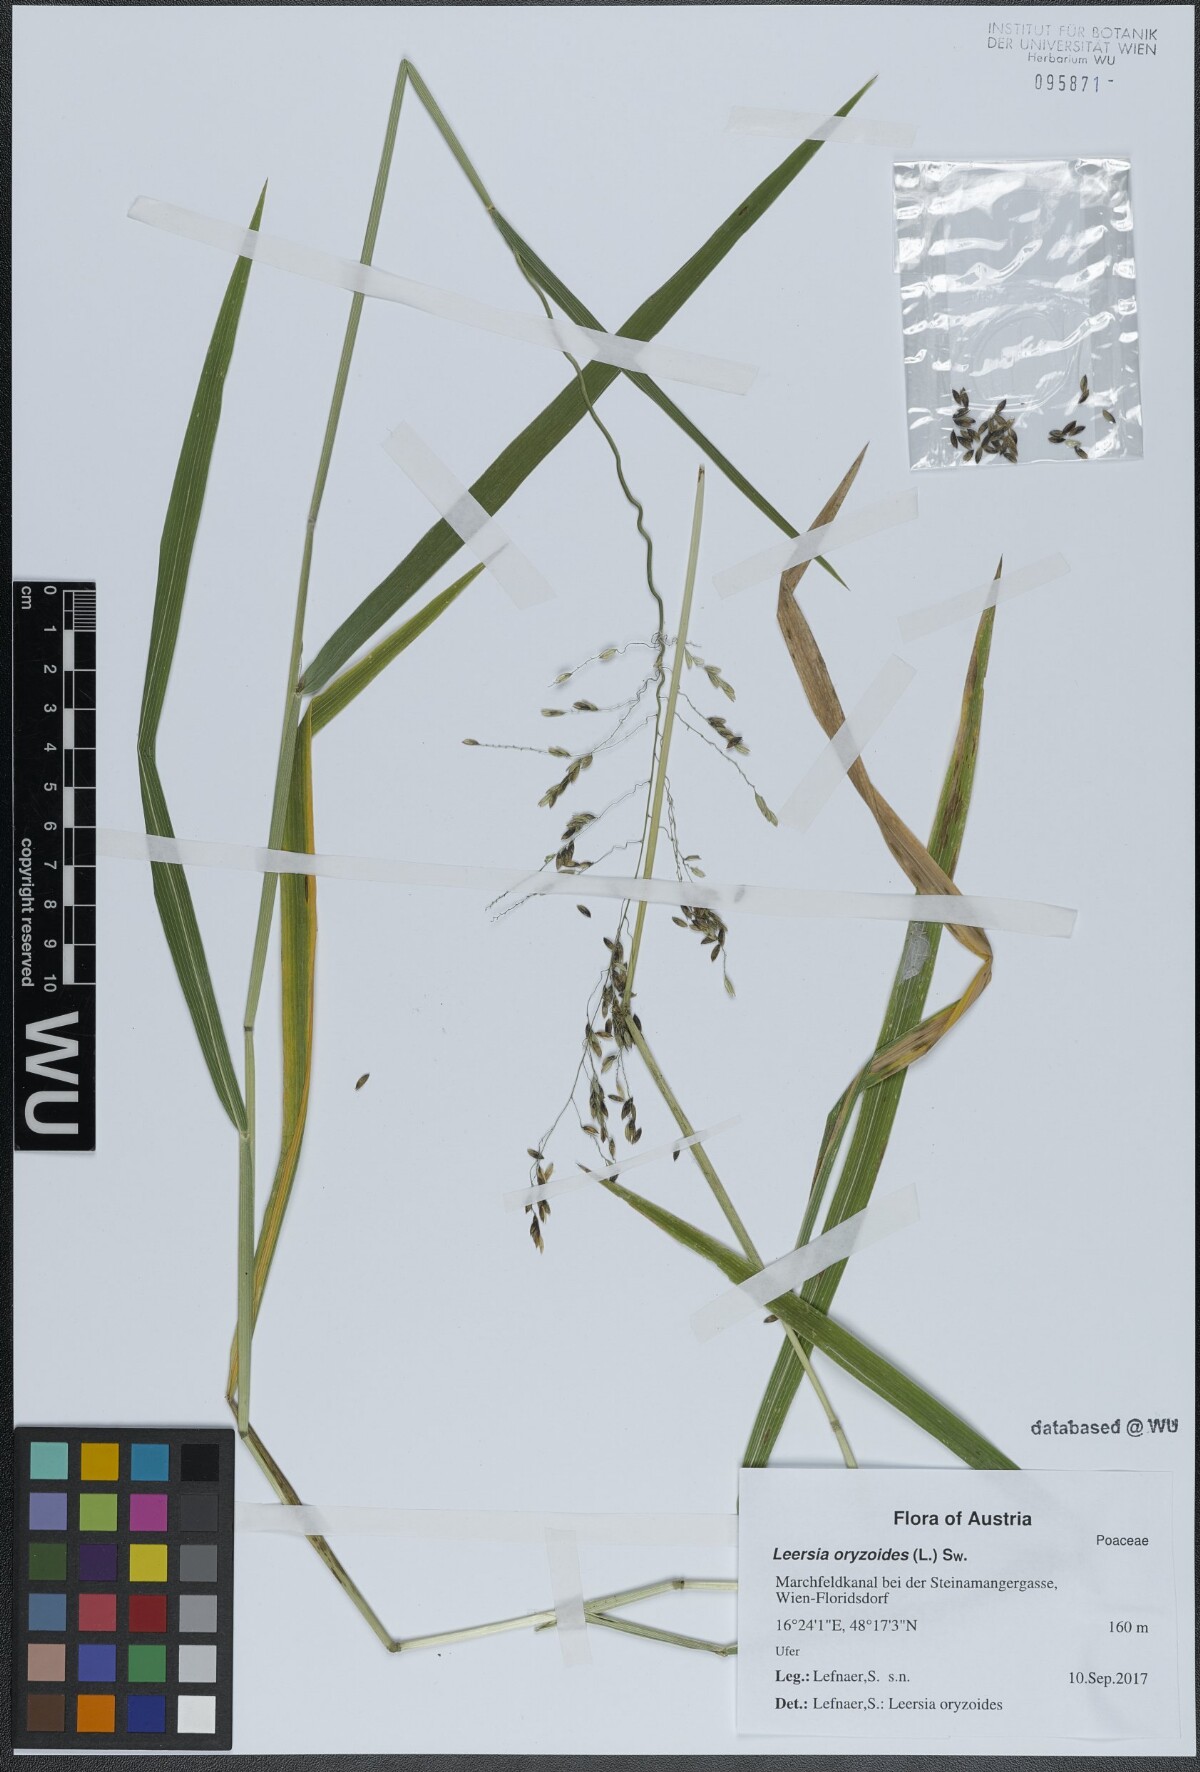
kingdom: Plantae
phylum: Tracheophyta
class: Liliopsida
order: Poales
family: Poaceae
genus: Leersia
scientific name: Leersia oryzoides
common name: Cut-grass
